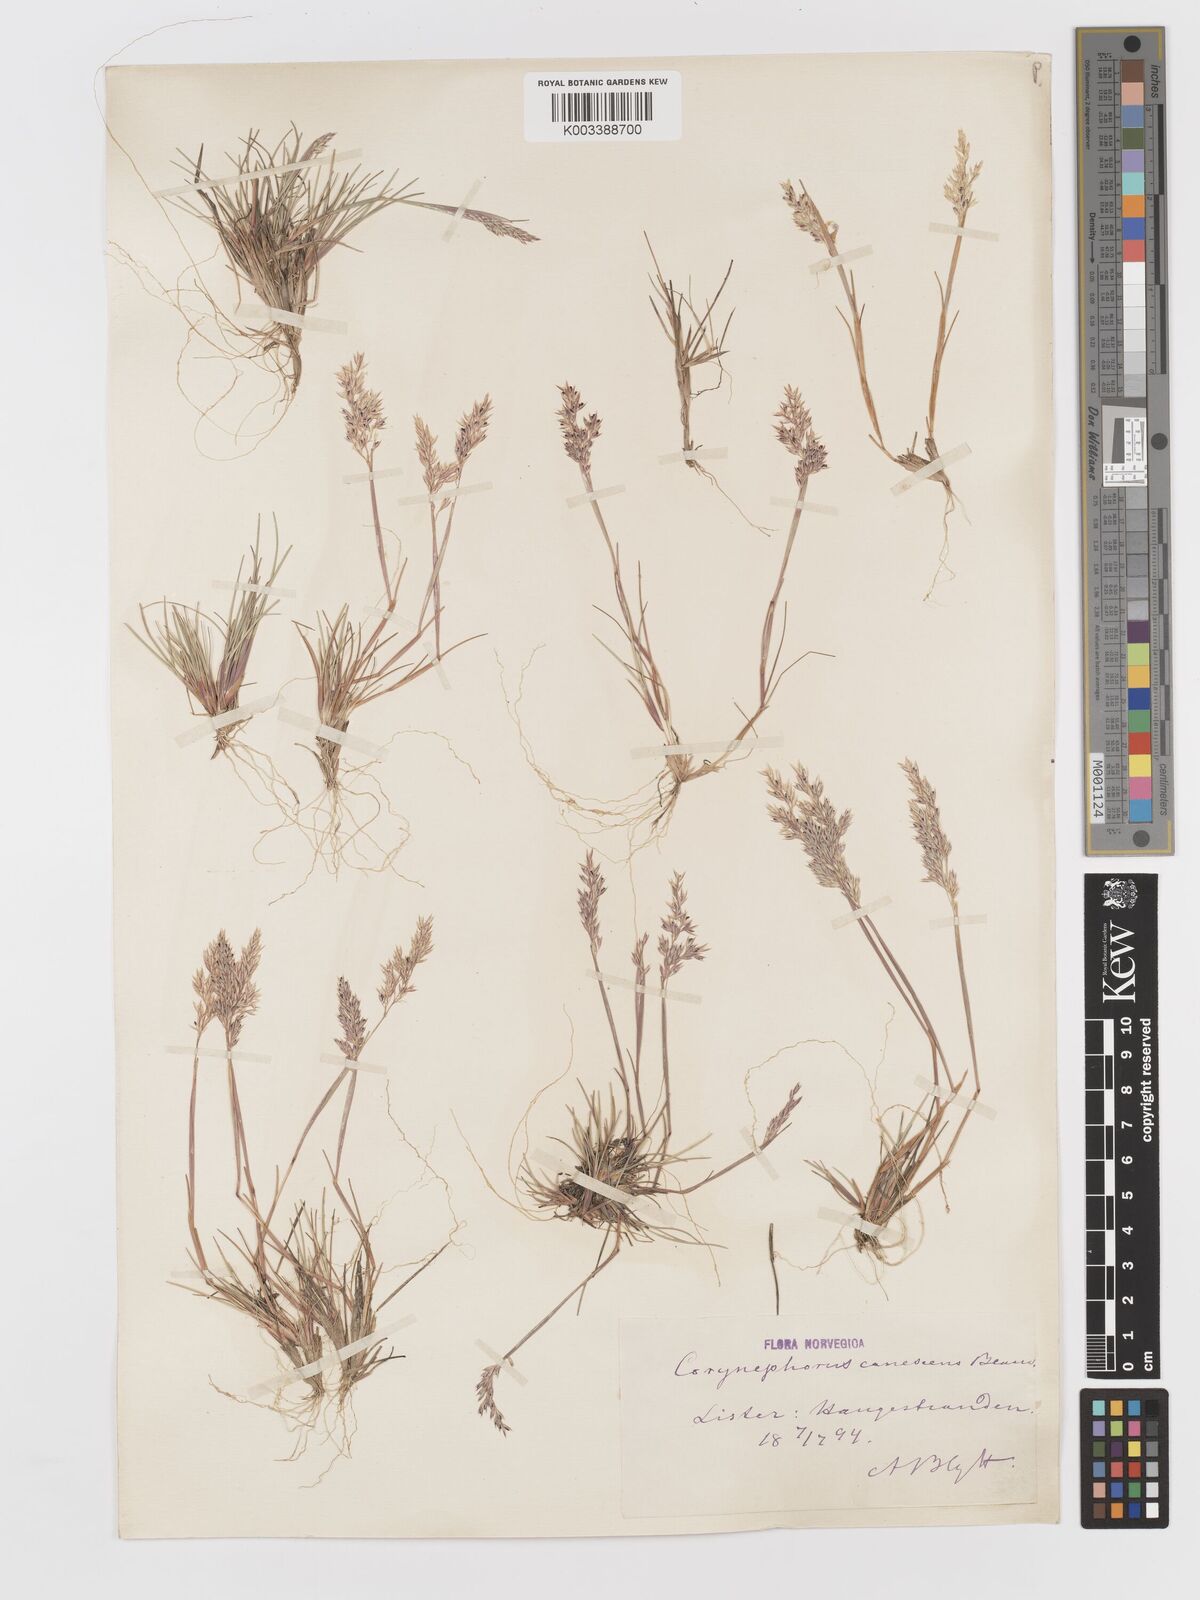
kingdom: Plantae
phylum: Tracheophyta
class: Liliopsida
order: Poales
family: Poaceae
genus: Corynephorus
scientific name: Corynephorus canescens
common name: Grey hair-grass
